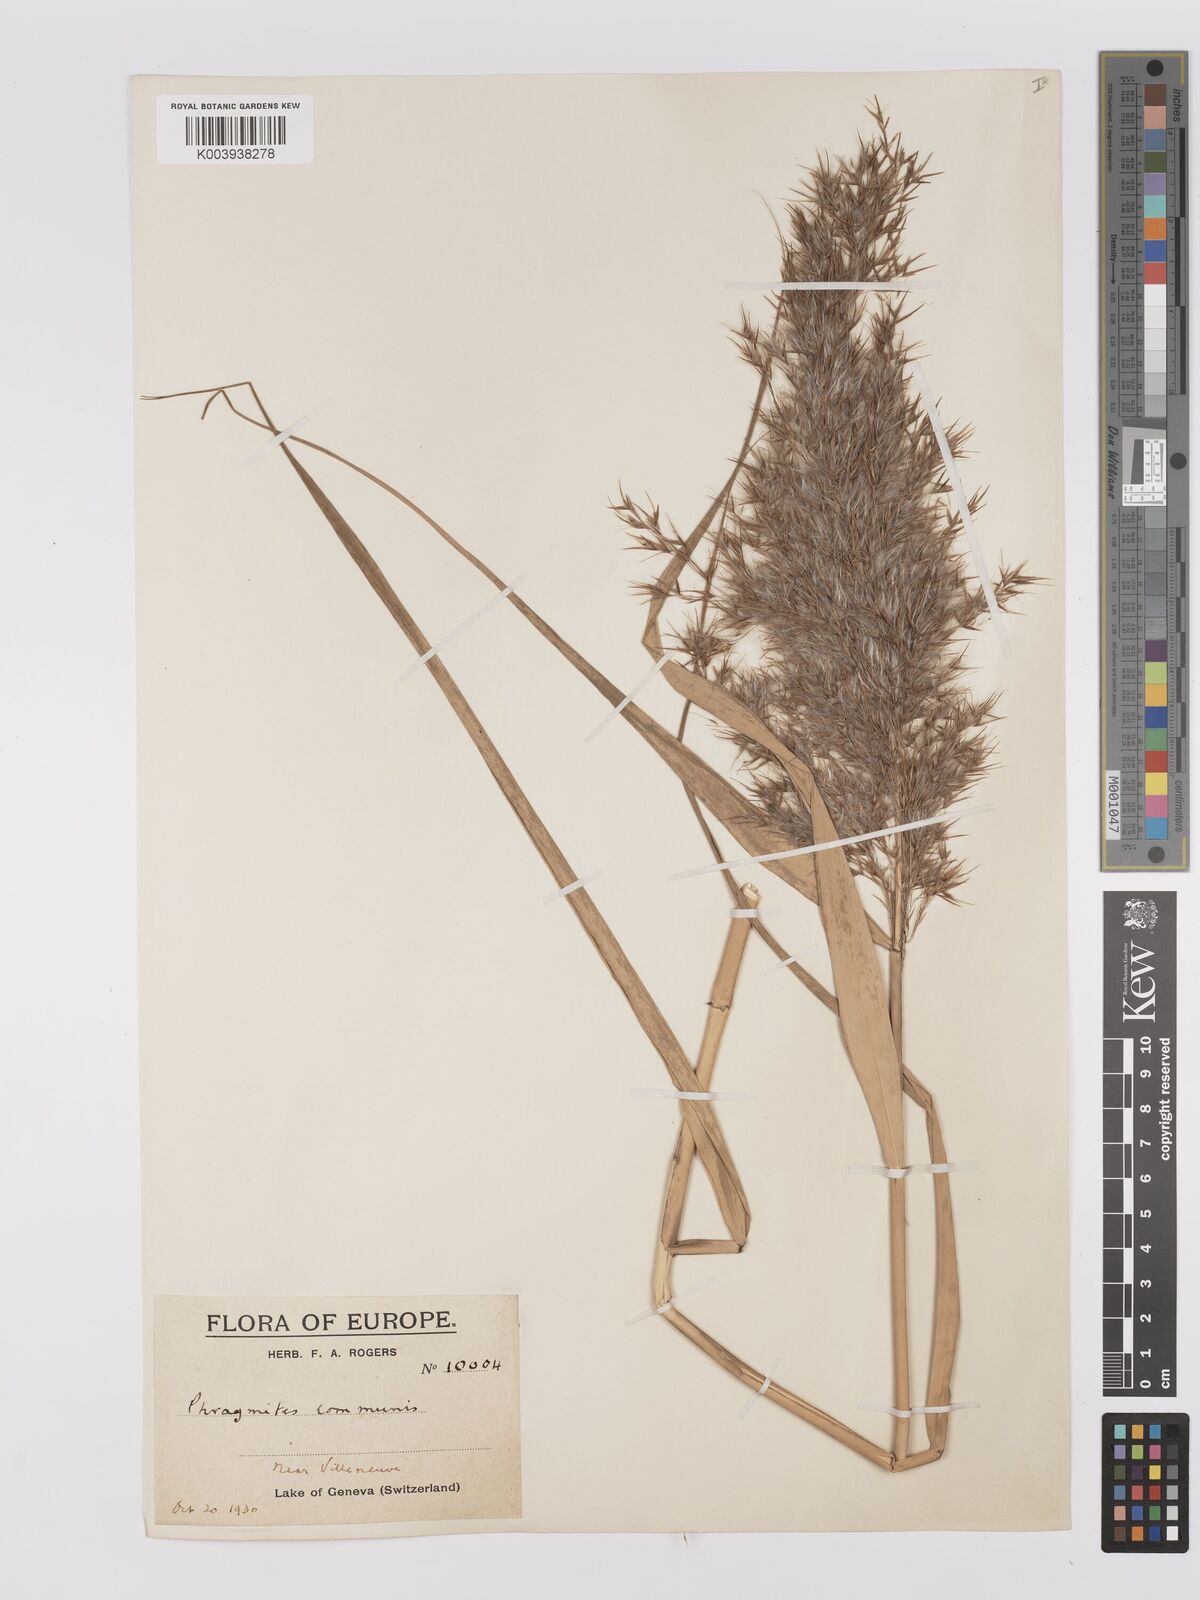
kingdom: Plantae
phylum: Tracheophyta
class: Liliopsida
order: Poales
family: Poaceae
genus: Phragmites
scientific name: Phragmites australis
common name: Common reed
